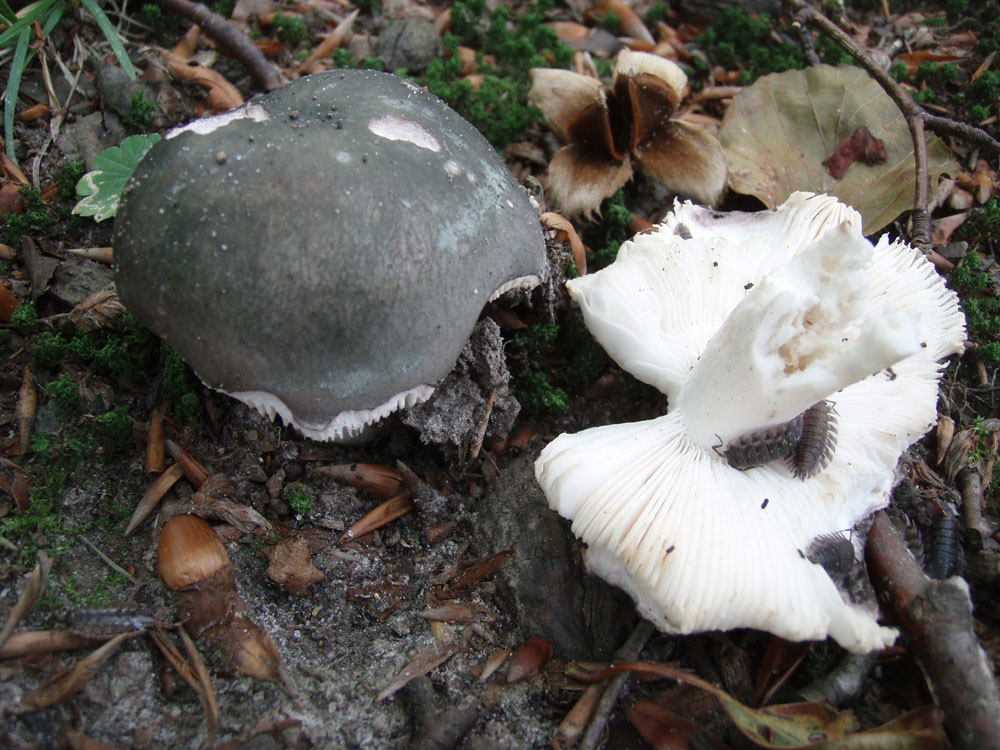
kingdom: Fungi
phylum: Basidiomycota
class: Agaricomycetes
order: Russulales
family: Russulaceae
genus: Russula
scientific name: Russula cyanoxantha
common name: broget skørhat
